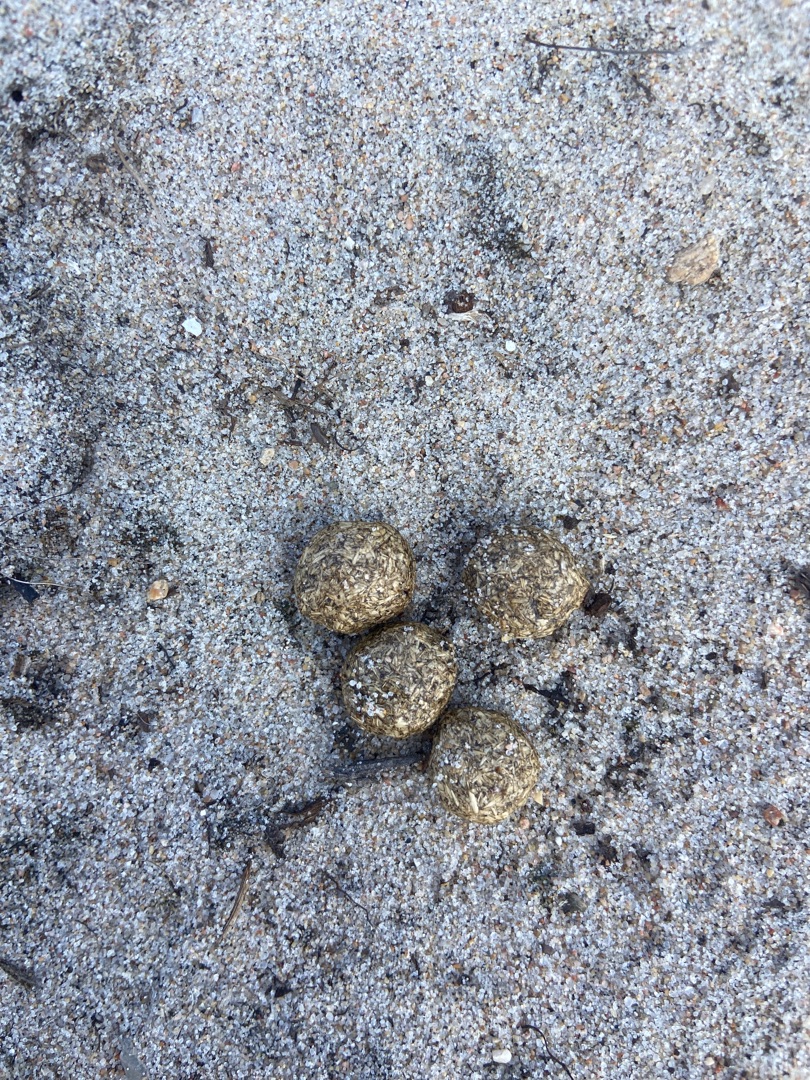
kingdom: Animalia
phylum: Chordata
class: Mammalia
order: Lagomorpha
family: Leporidae
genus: Lepus
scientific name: Lepus europaeus
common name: Hare
